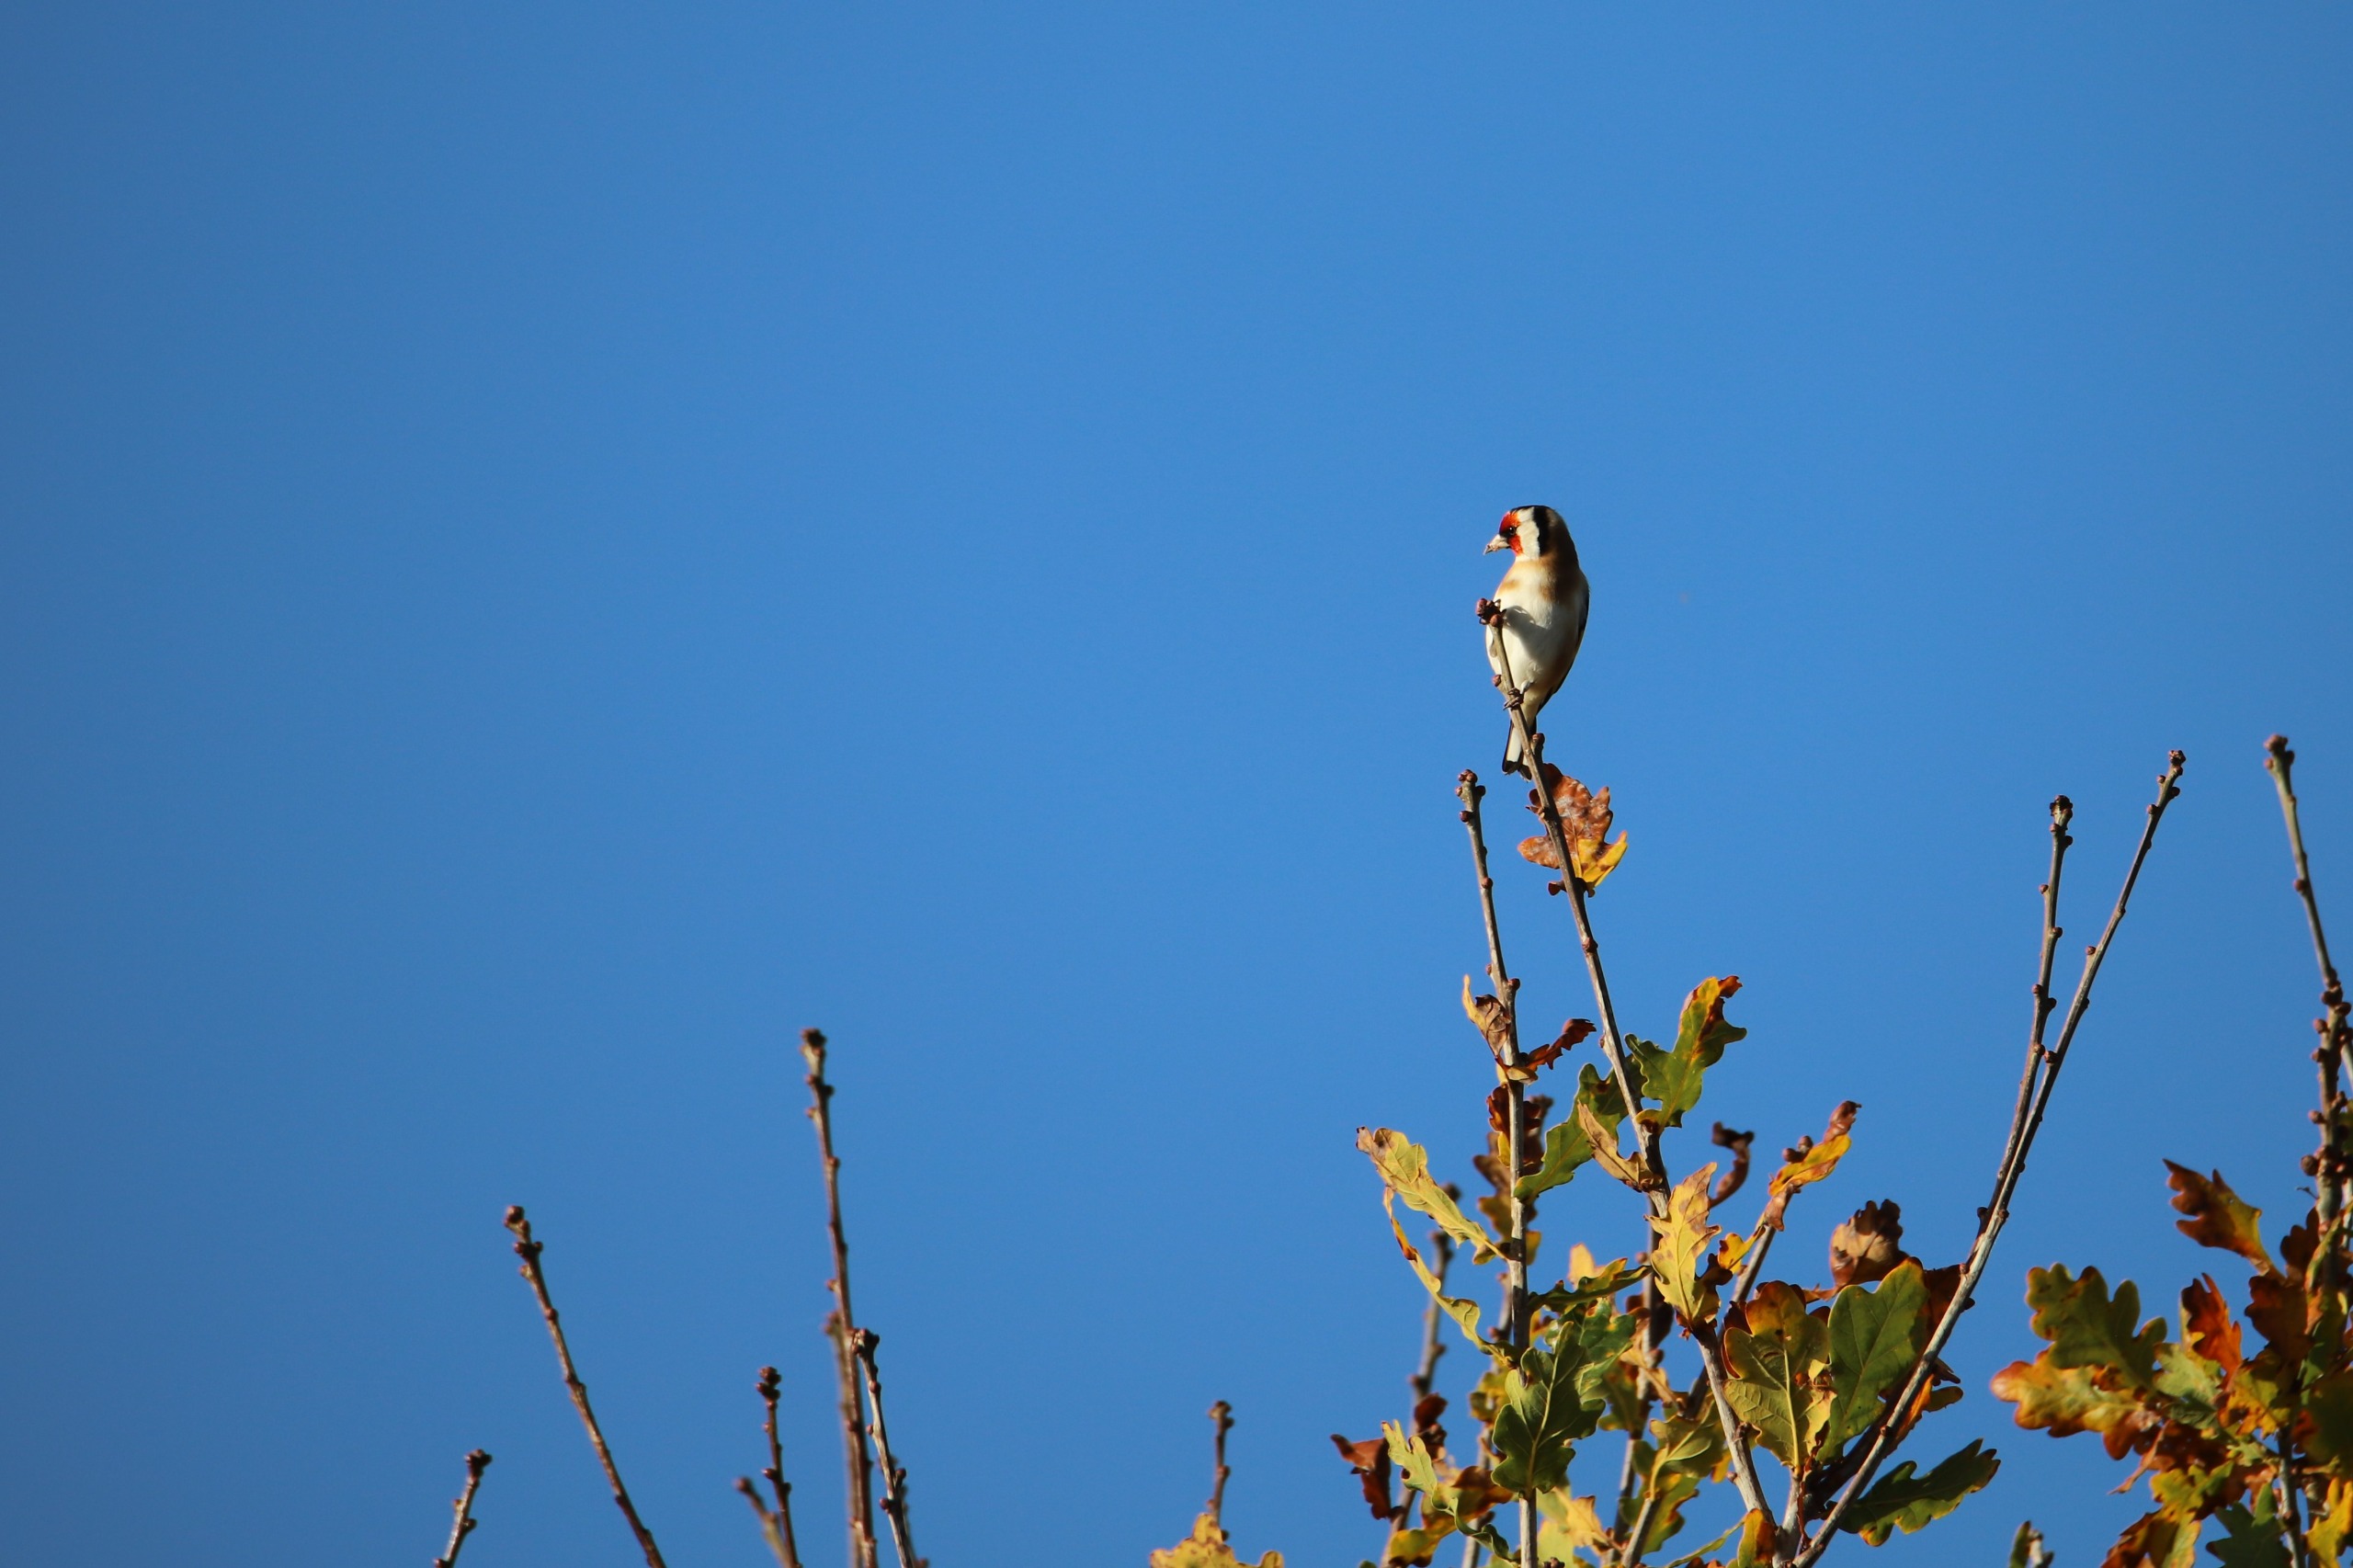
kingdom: Animalia
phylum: Chordata
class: Aves
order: Passeriformes
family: Fringillidae
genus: Carduelis
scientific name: Carduelis carduelis
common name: Stillits
